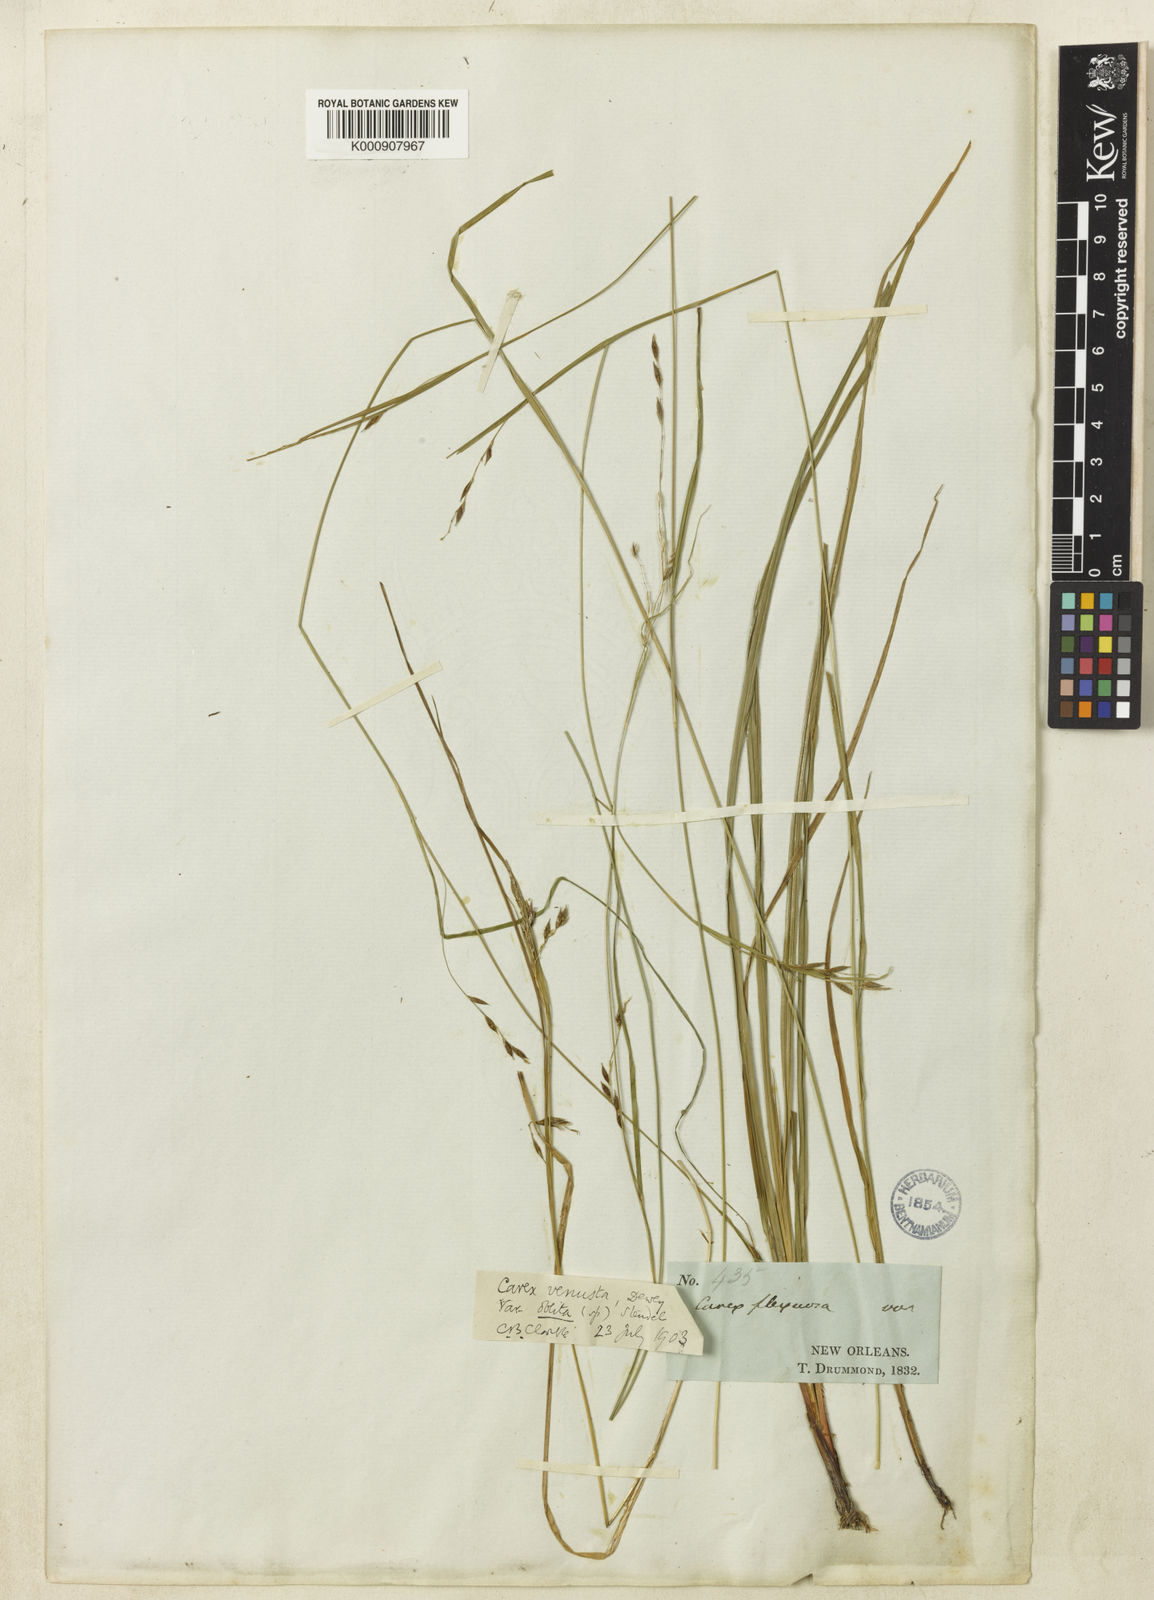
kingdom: Plantae
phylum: Tracheophyta
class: Liliopsida
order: Poales
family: Cyperaceae
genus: Carex
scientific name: Carex venusta
